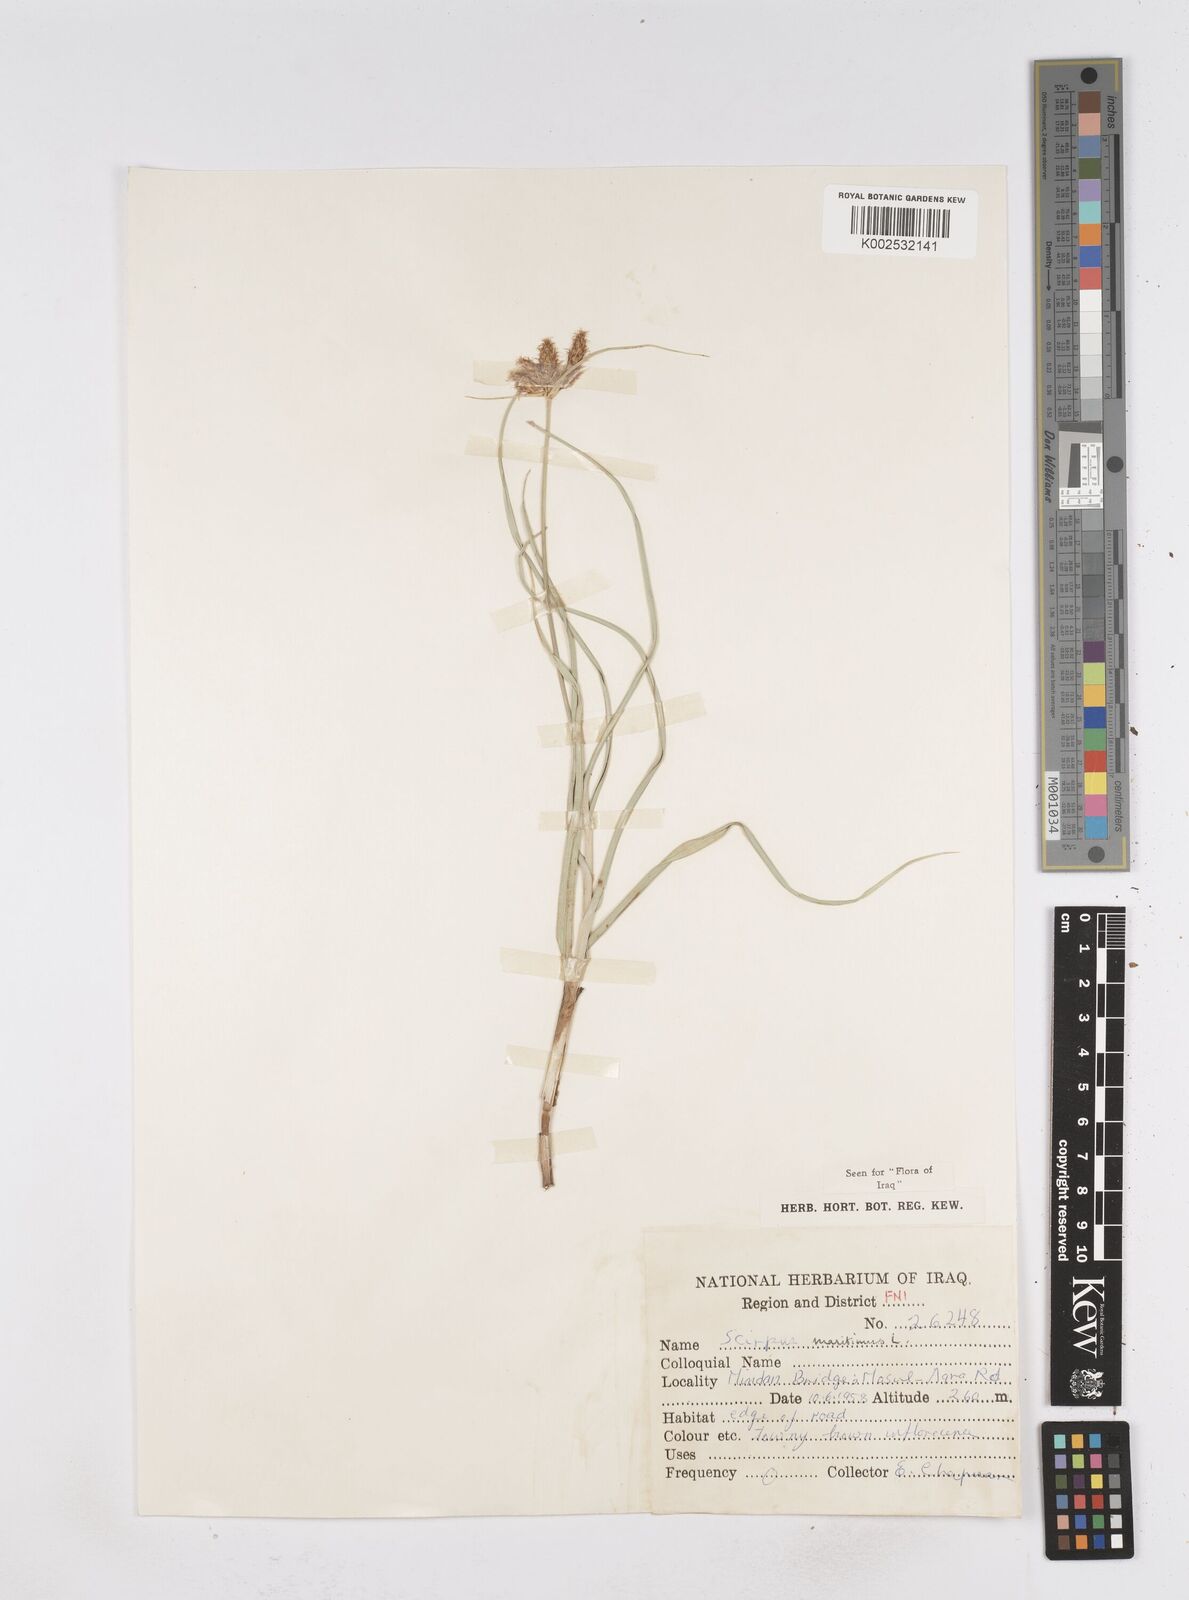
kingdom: Plantae
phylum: Tracheophyta
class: Liliopsida
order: Poales
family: Cyperaceae
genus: Bolboschoenus
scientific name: Bolboschoenus maritimus
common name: Sea club-rush
